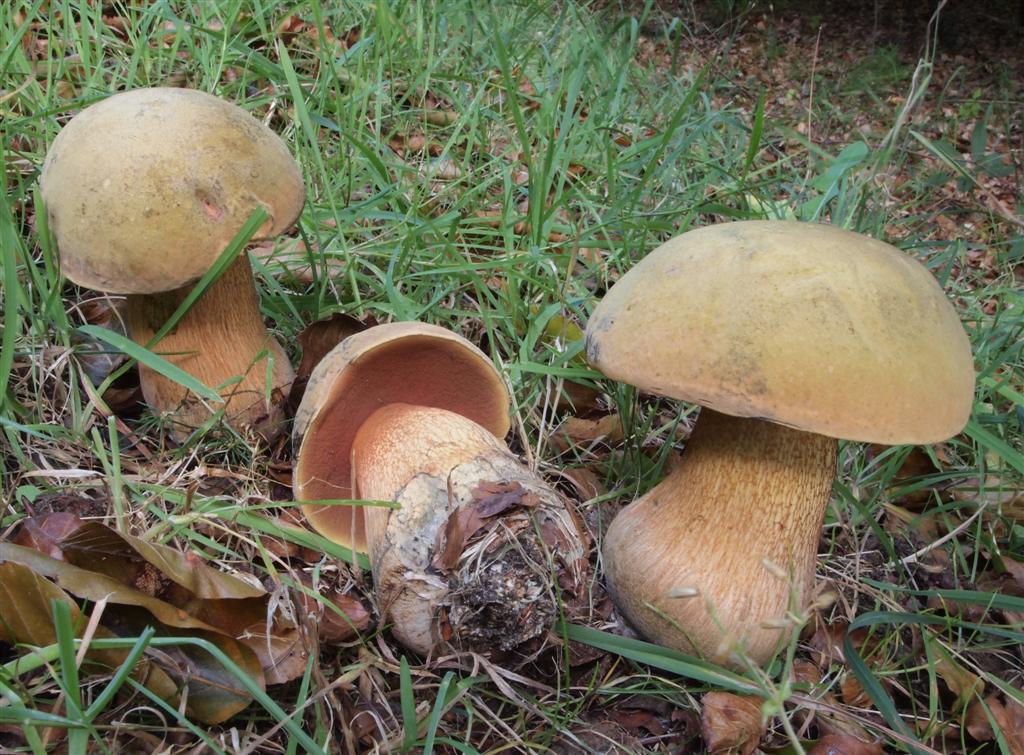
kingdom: Fungi
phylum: Basidiomycota
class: Agaricomycetes
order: Boletales
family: Boletaceae
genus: Suillellus
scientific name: Suillellus luridus
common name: netstokket indigorørhat
